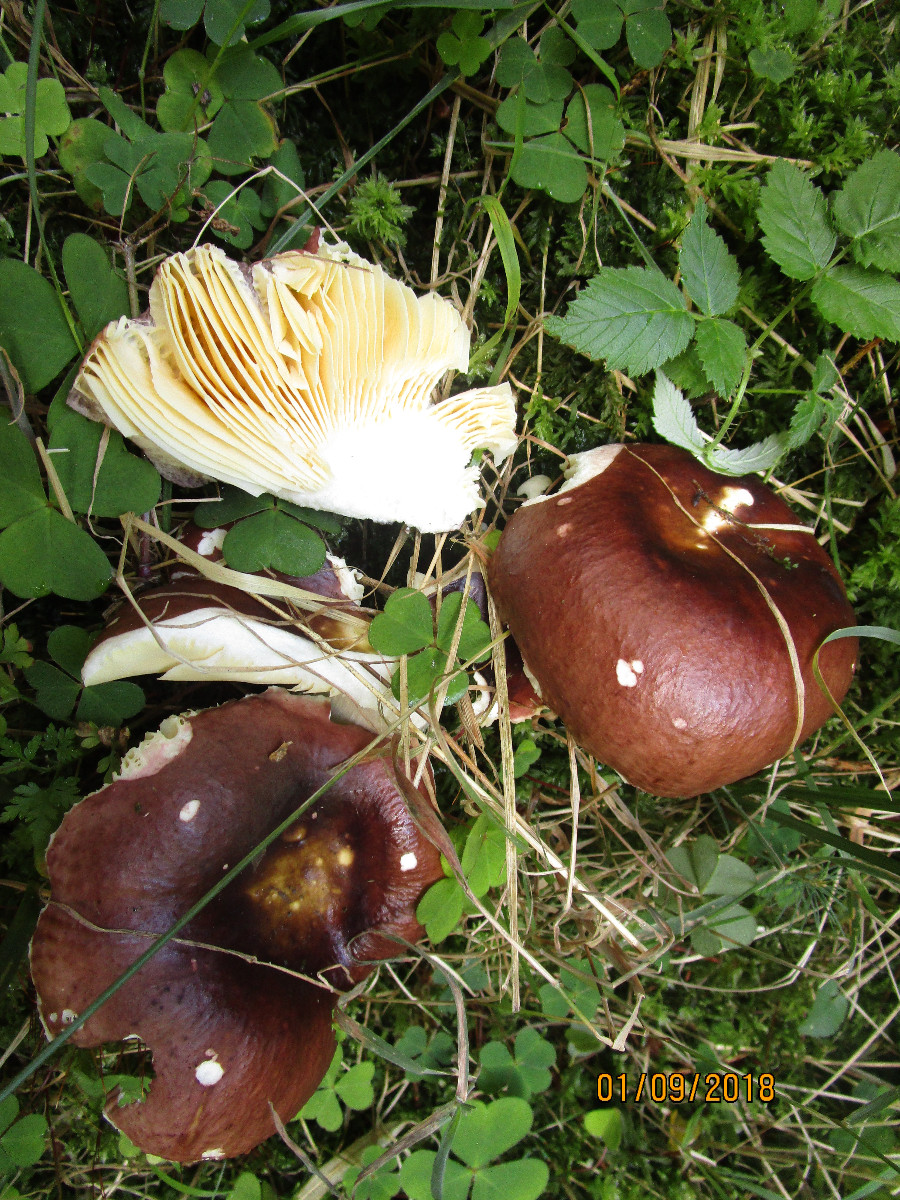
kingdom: Fungi
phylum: Basidiomycota
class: Agaricomycetes
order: Russulales
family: Russulaceae
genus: Russula
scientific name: Russula integra
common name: mandel-skørhat
